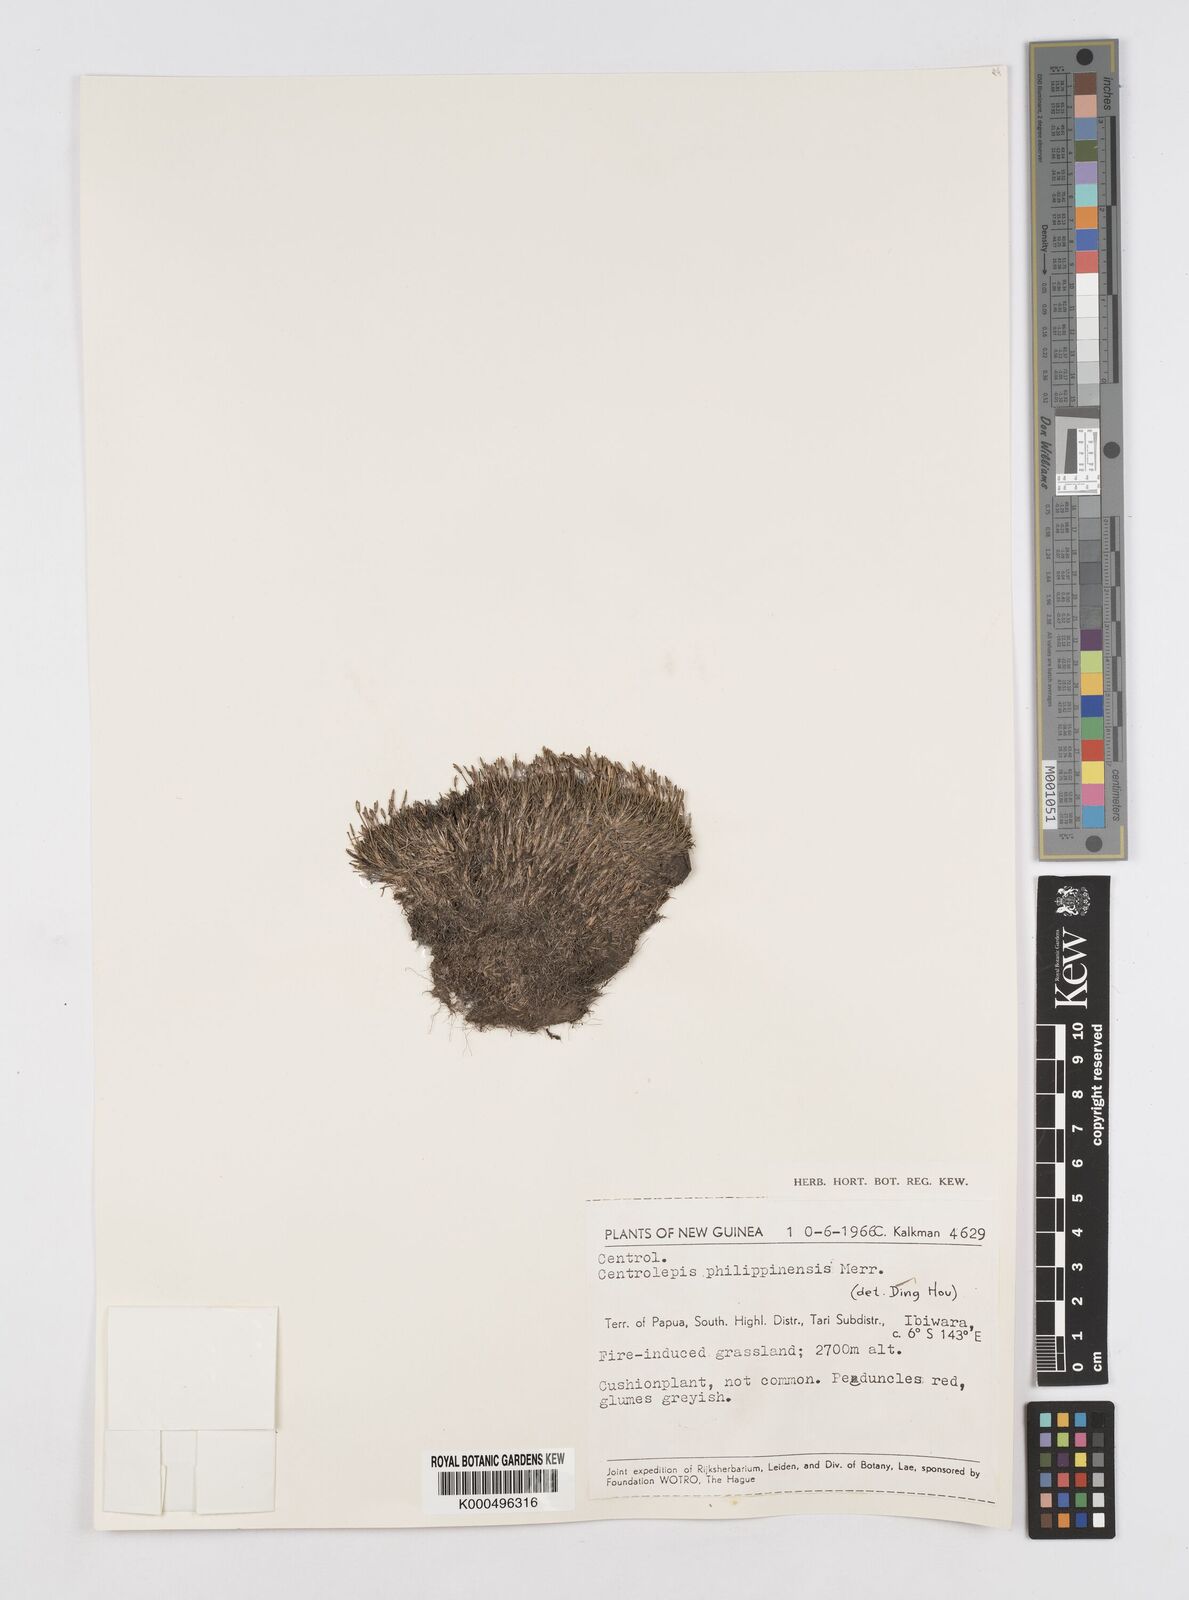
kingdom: Plantae
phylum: Tracheophyta
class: Liliopsida
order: Poales
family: Restionaceae
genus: Centrolepis
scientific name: Centrolepis philippinensis
